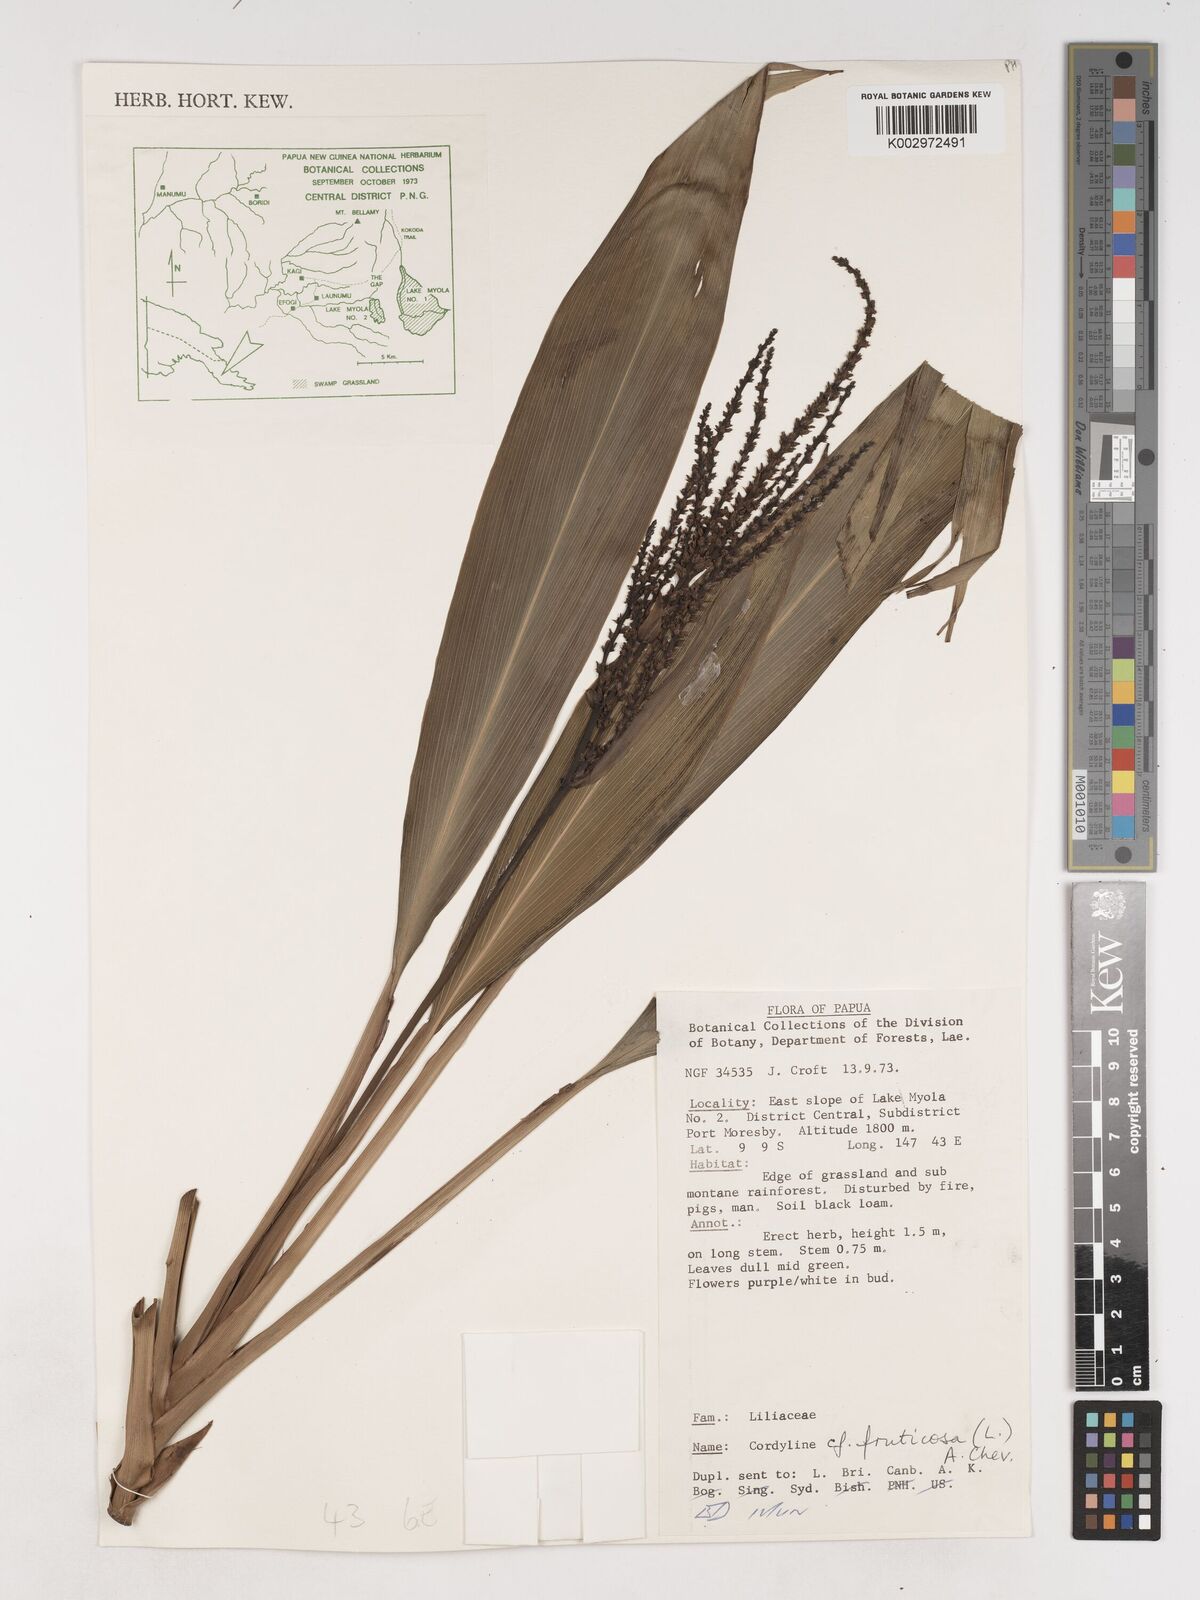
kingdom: Plantae
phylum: Tracheophyta
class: Liliopsida
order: Asparagales
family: Asparagaceae
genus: Cordyline
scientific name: Cordyline fruticosa
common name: Good-luck-plant
